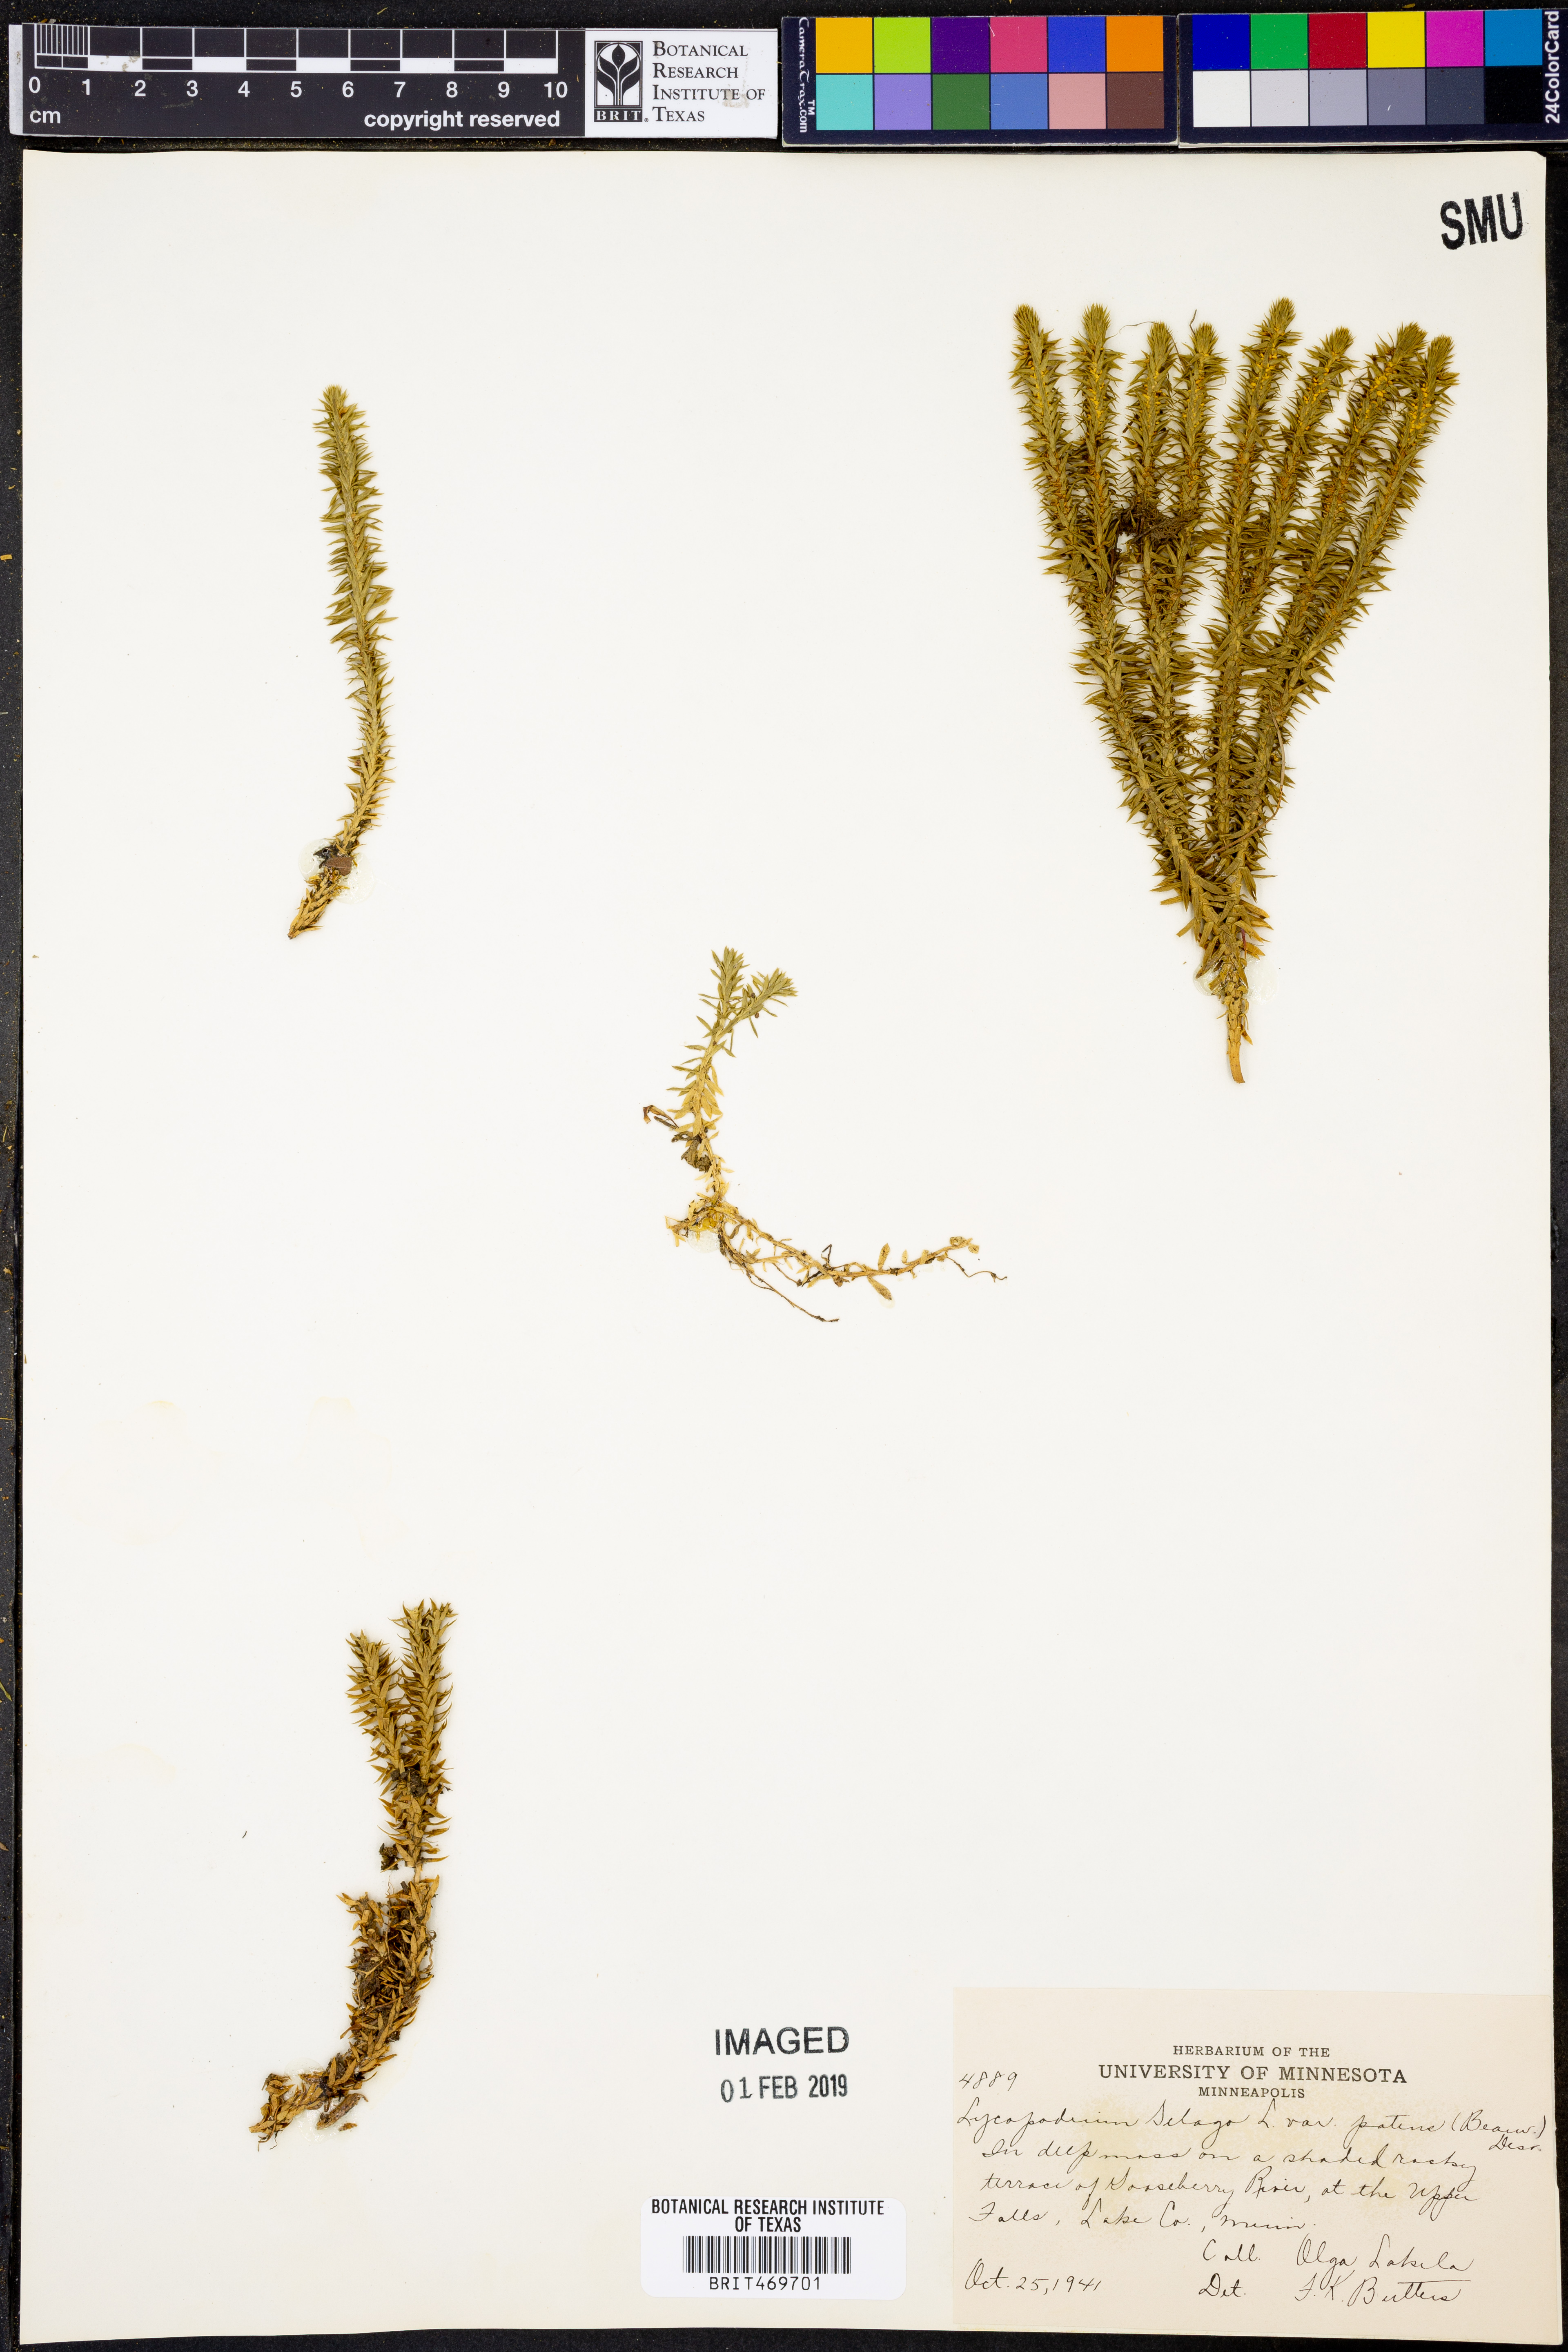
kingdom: Plantae
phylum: Tracheophyta
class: Lycopodiopsida
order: Lycopodiales
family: Lycopodiaceae
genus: Huperzia
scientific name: Huperzia selago
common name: Northern firmoss
